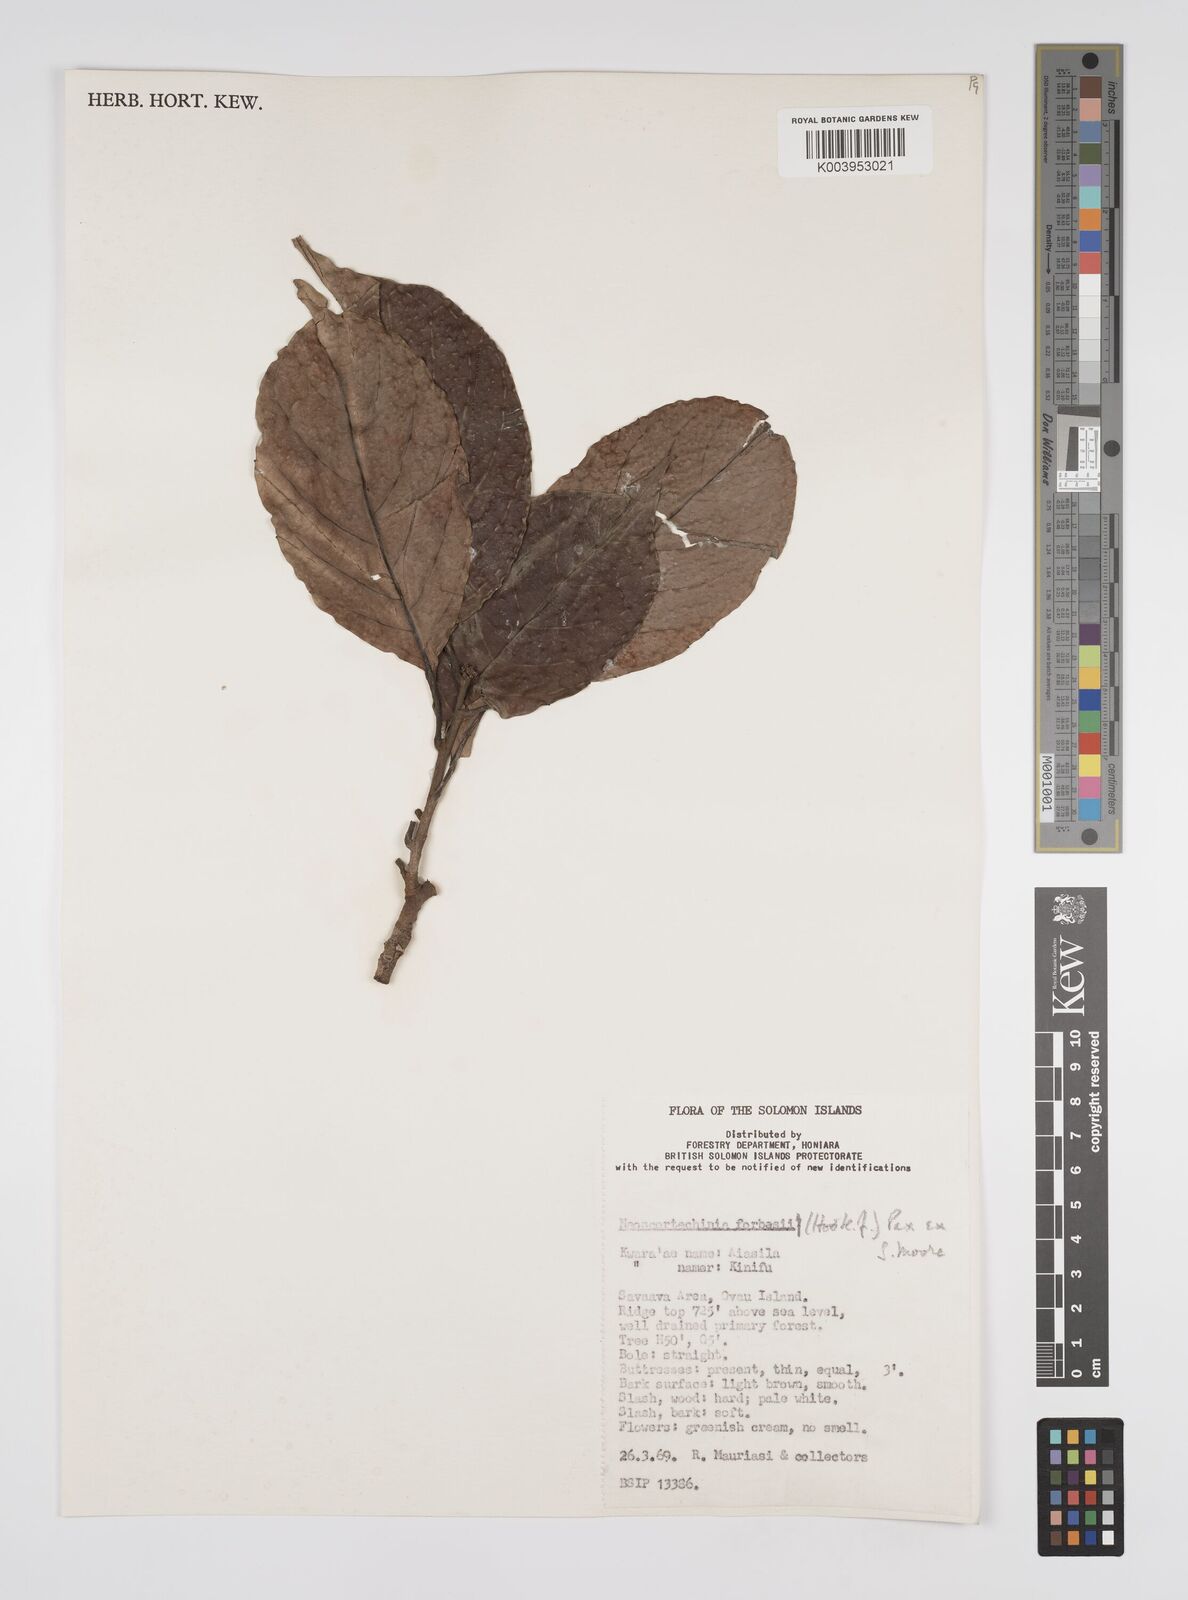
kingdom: Plantae
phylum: Tracheophyta
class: Magnoliopsida
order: Malpighiales
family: Euphorbiaceae
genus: Neoscortechinia
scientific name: Neoscortechinia forbesii
